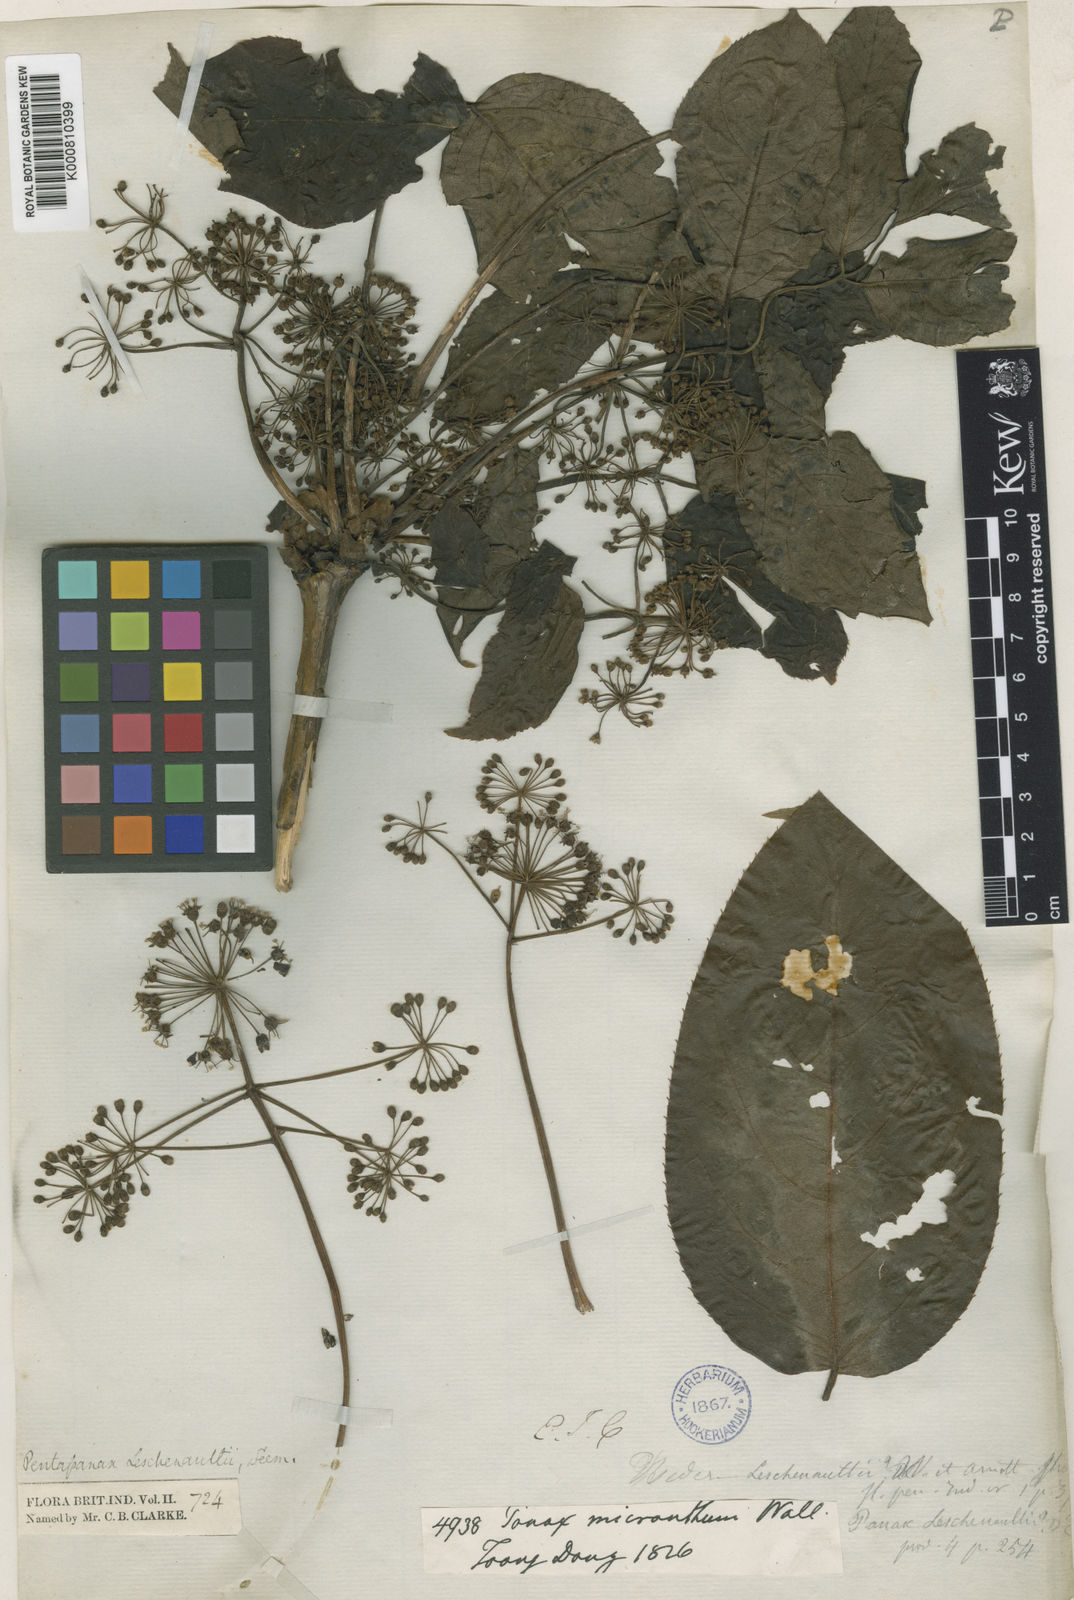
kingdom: Plantae
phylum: Tracheophyta
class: Magnoliopsida
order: Apiales
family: Araliaceae
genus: Aralia
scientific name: Aralia leschenaultii
